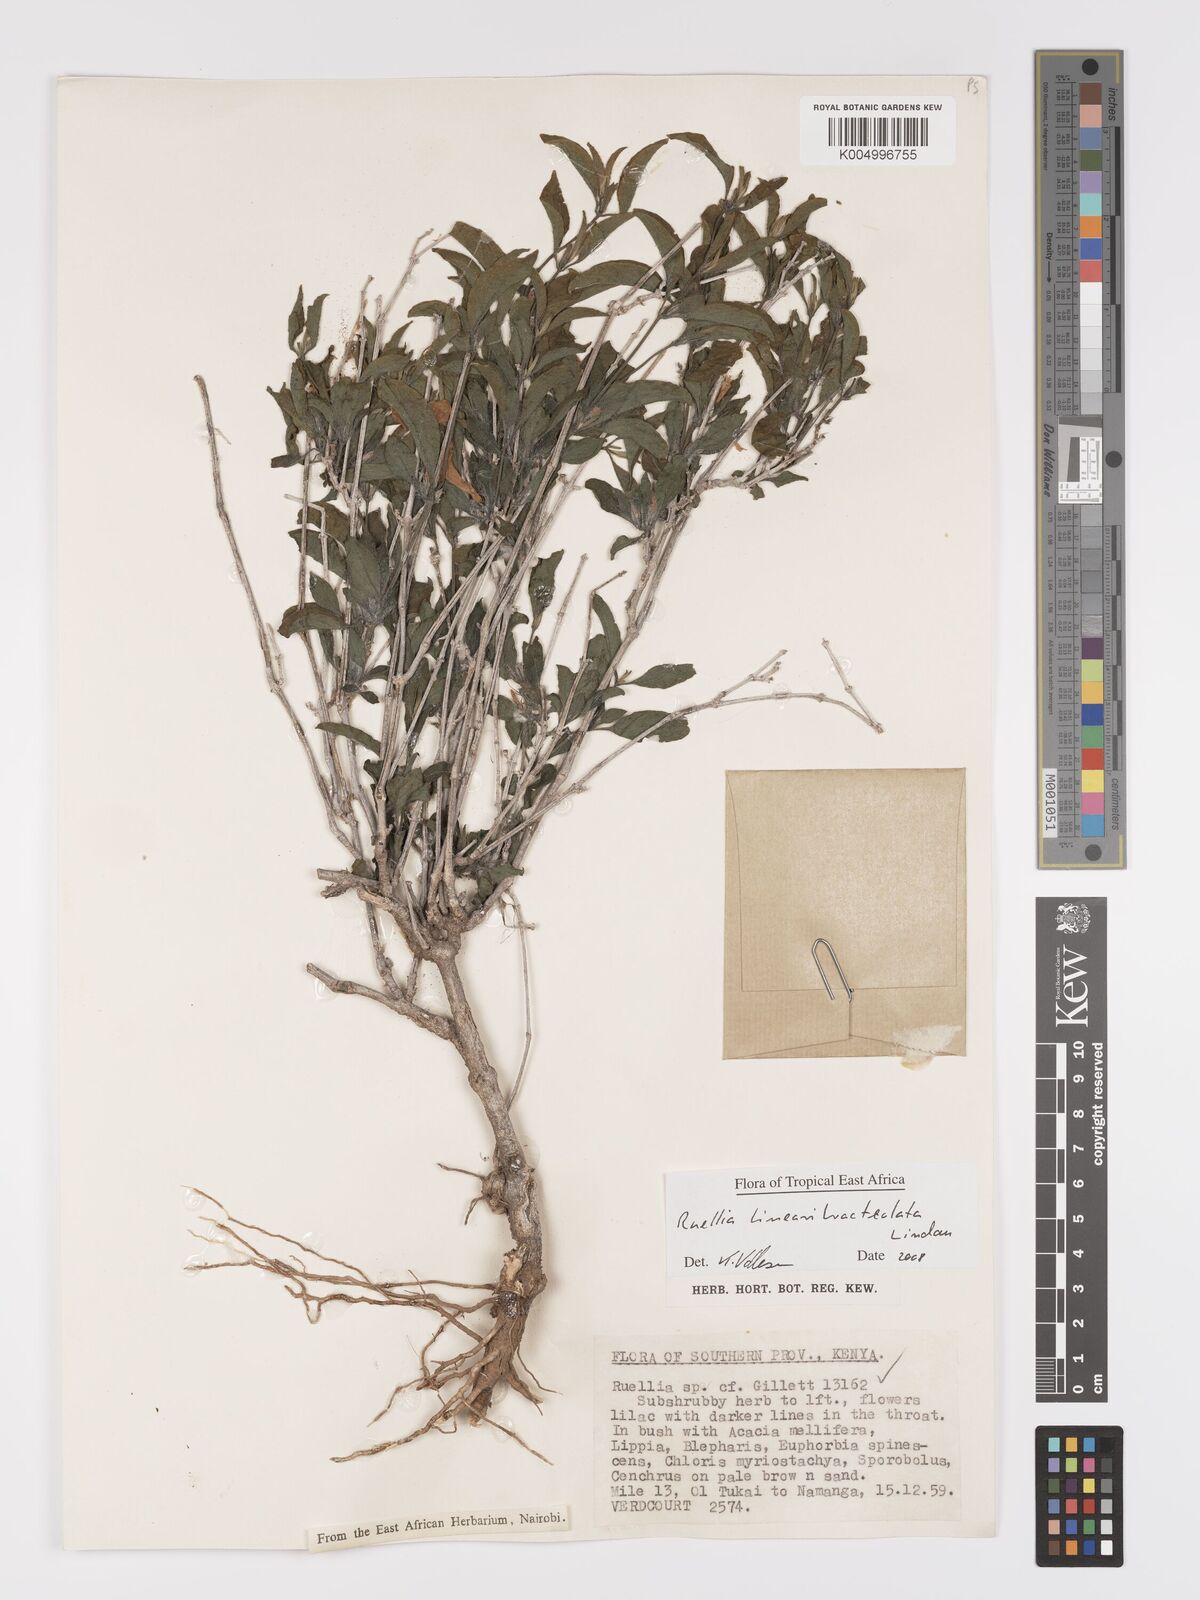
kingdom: Plantae
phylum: Tracheophyta
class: Magnoliopsida
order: Lamiales
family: Acanthaceae
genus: Ruellia
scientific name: Ruellia linearibracteolata
